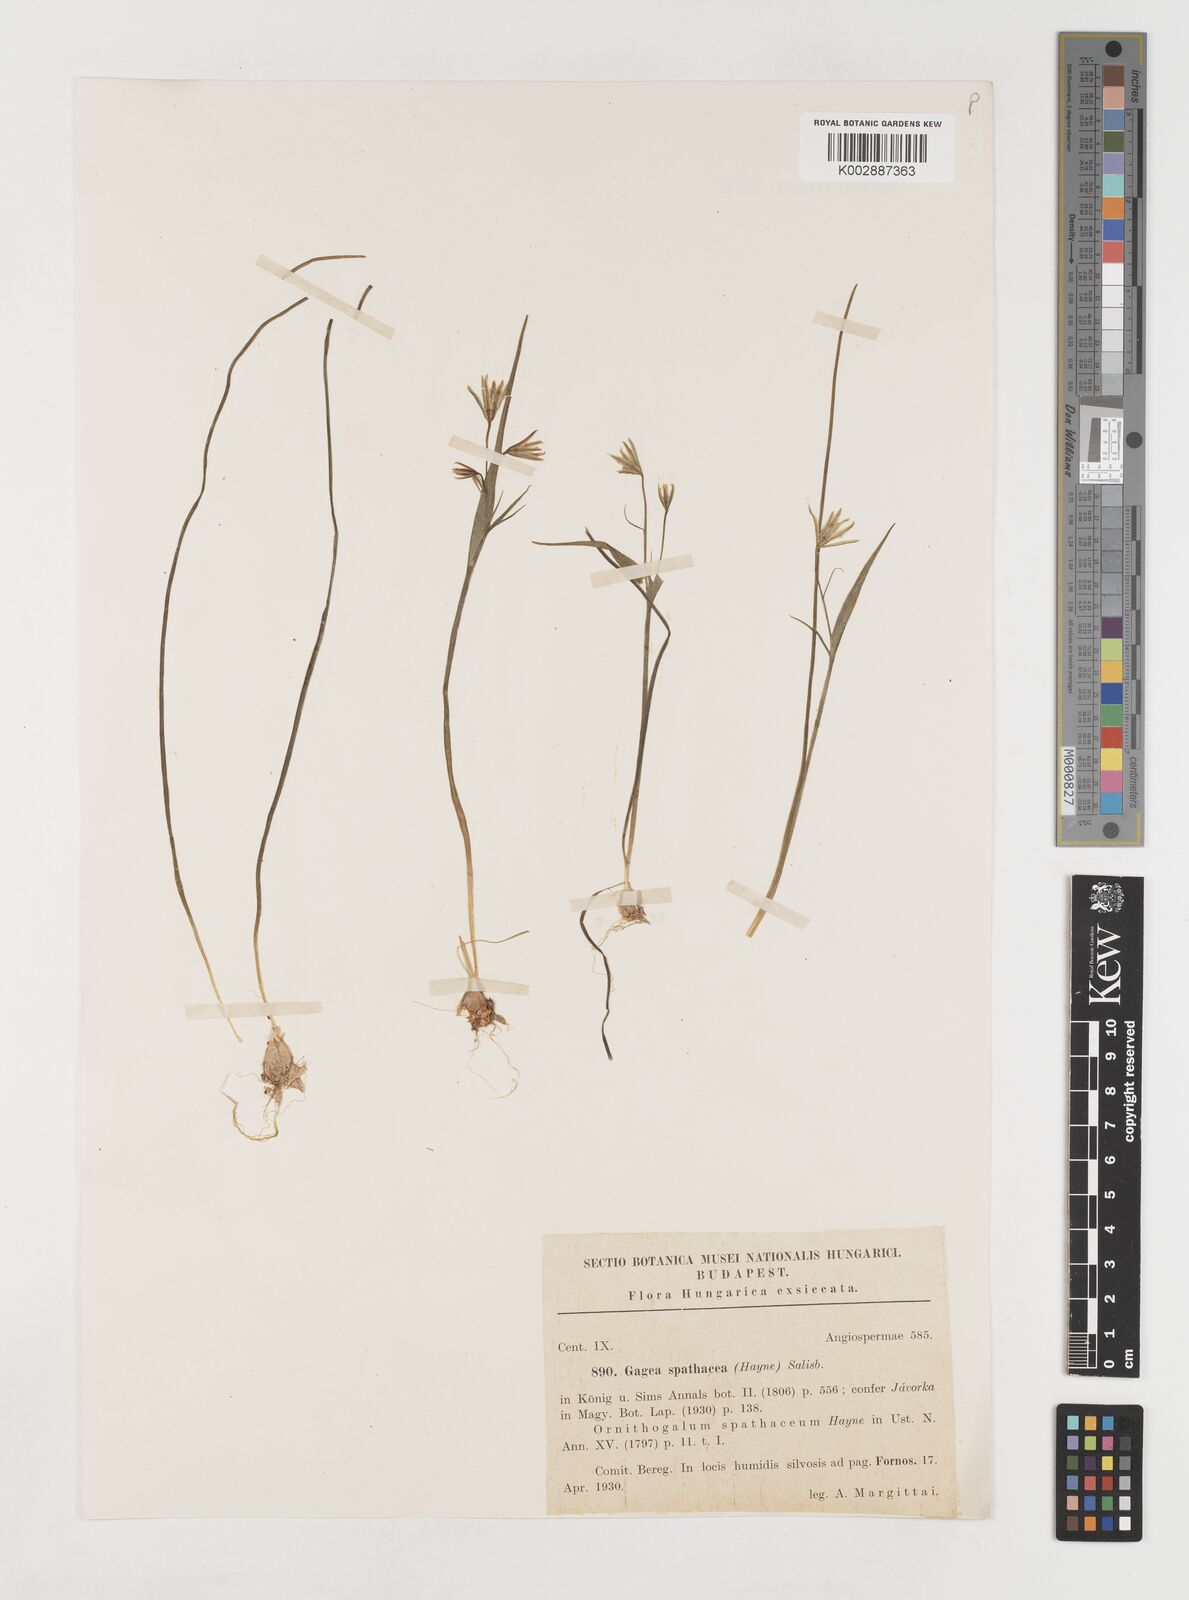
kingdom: Plantae
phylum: Tracheophyta
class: Liliopsida
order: Liliales
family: Liliaceae
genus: Gagea
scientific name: Gagea spathacea
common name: Belgian gagea
